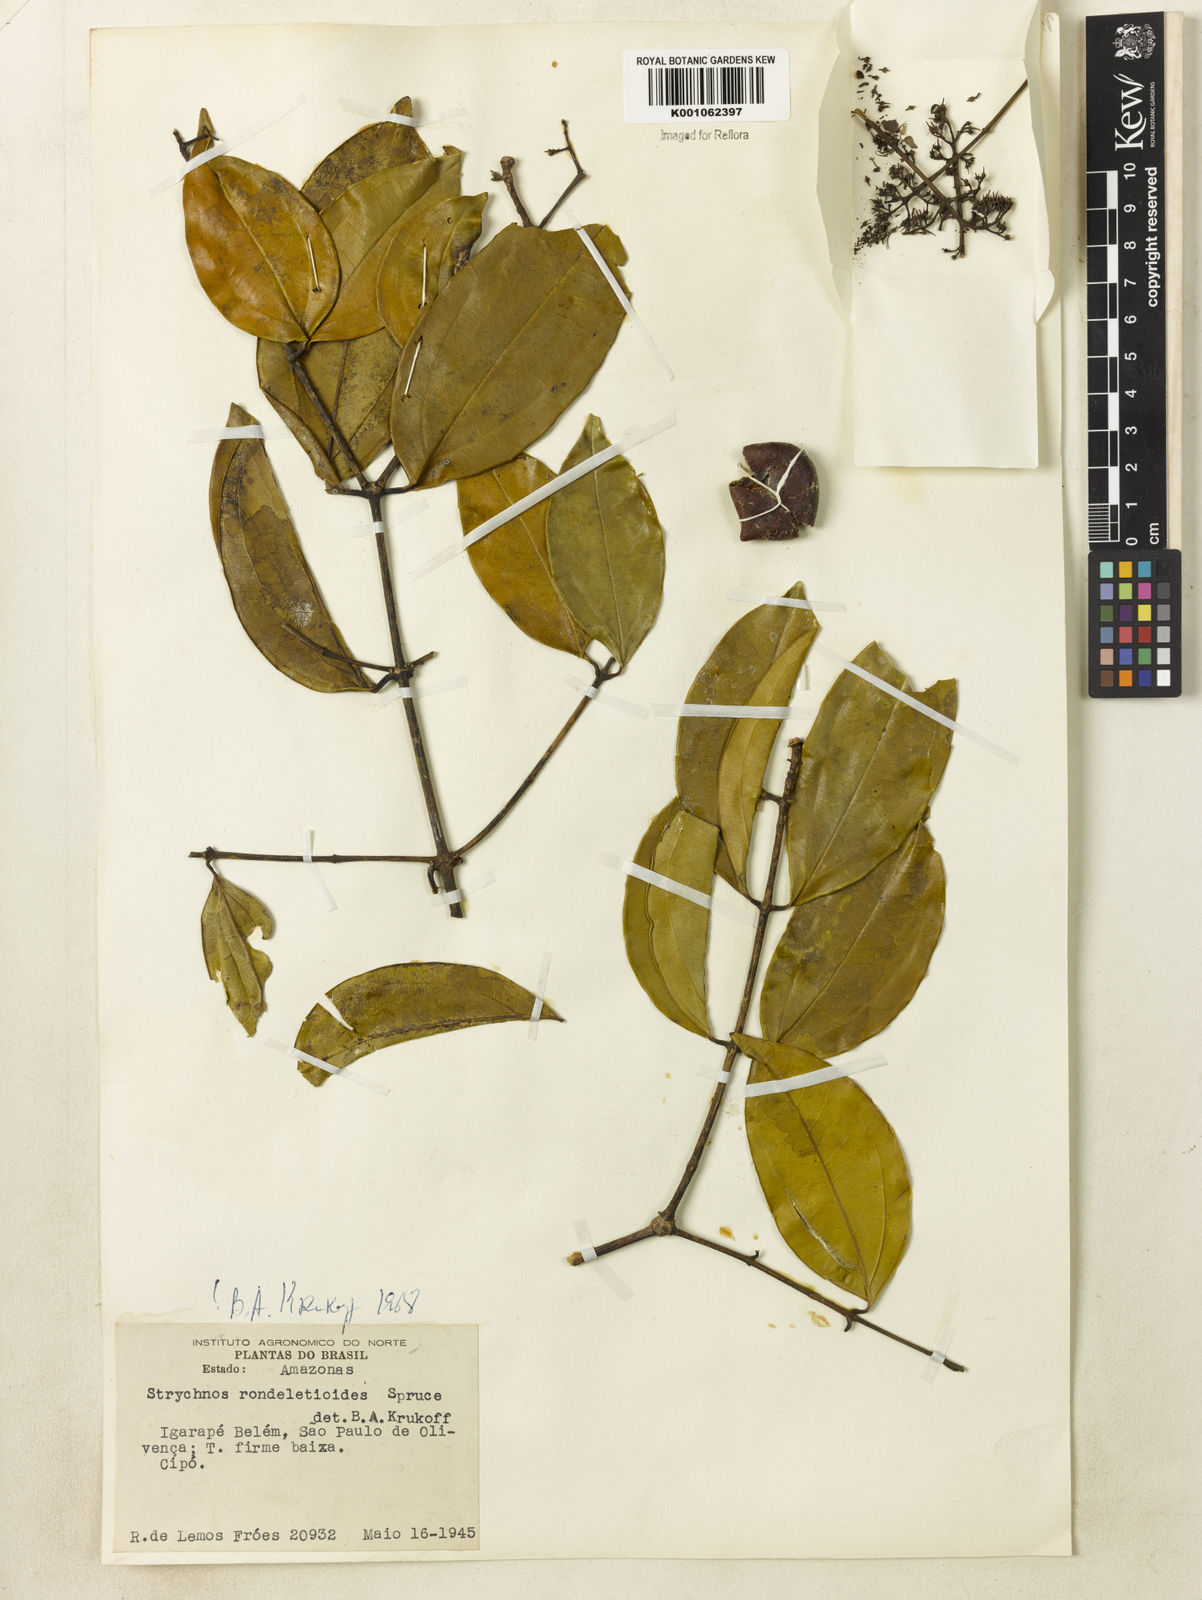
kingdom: Plantae
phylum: Tracheophyta
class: Magnoliopsida
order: Gentianales
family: Loganiaceae
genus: Strychnos
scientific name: Strychnos barnhartiana
